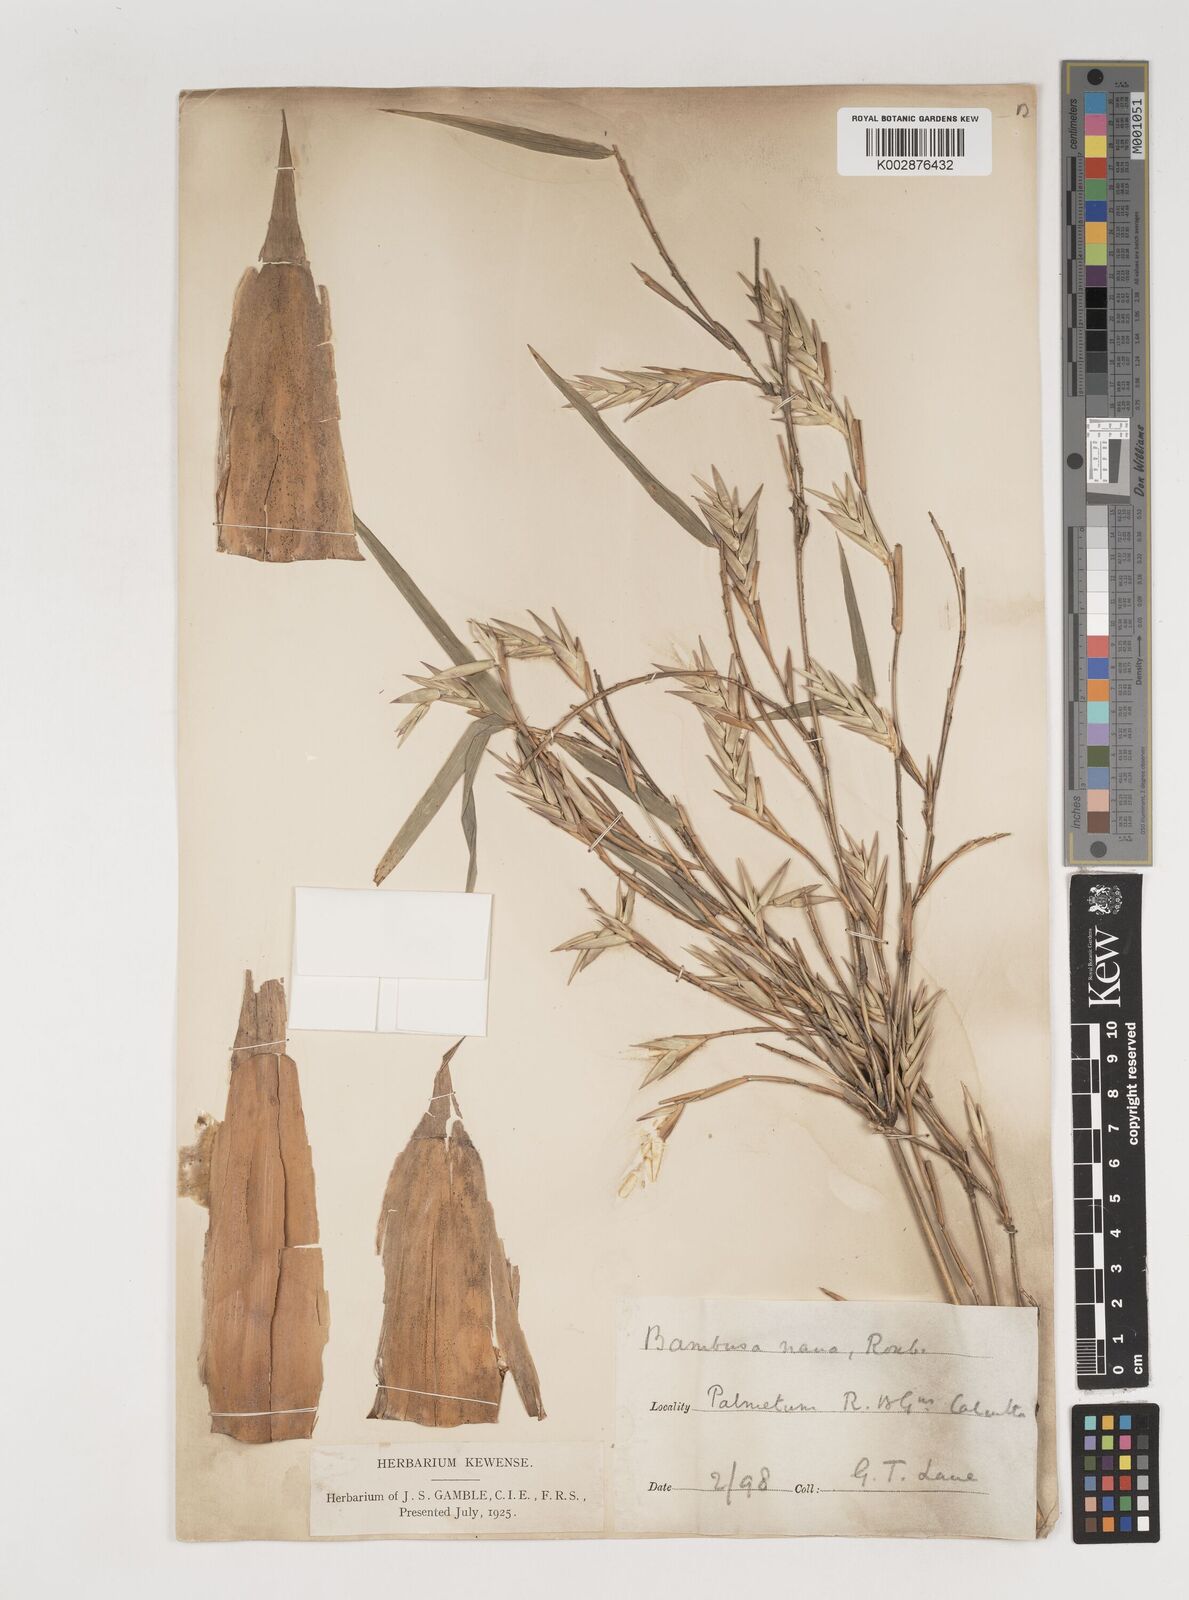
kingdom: Plantae
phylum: Tracheophyta
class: Liliopsida
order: Poales
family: Poaceae
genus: Bambusa
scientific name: Bambusa multiplex
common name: Hedge bamboo
